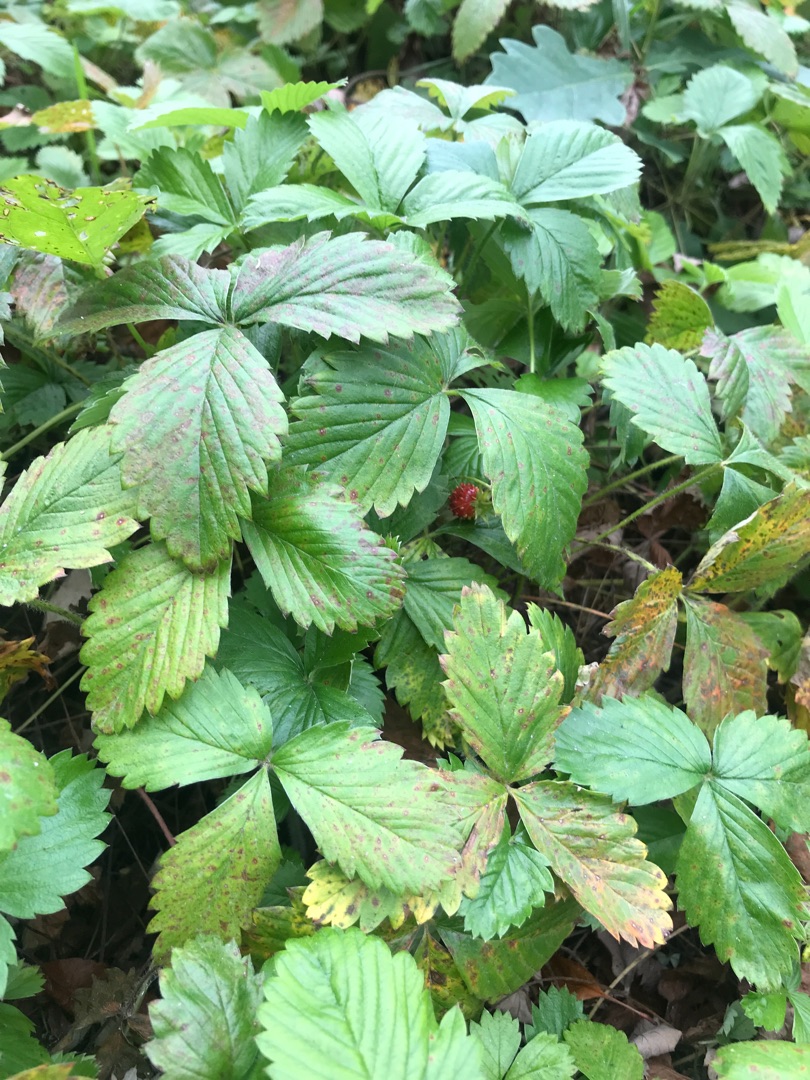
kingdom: Plantae
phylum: Tracheophyta
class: Magnoliopsida
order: Rosales
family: Rosaceae
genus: Fragaria
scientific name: Fragaria ananassa
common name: Have-jordbær
